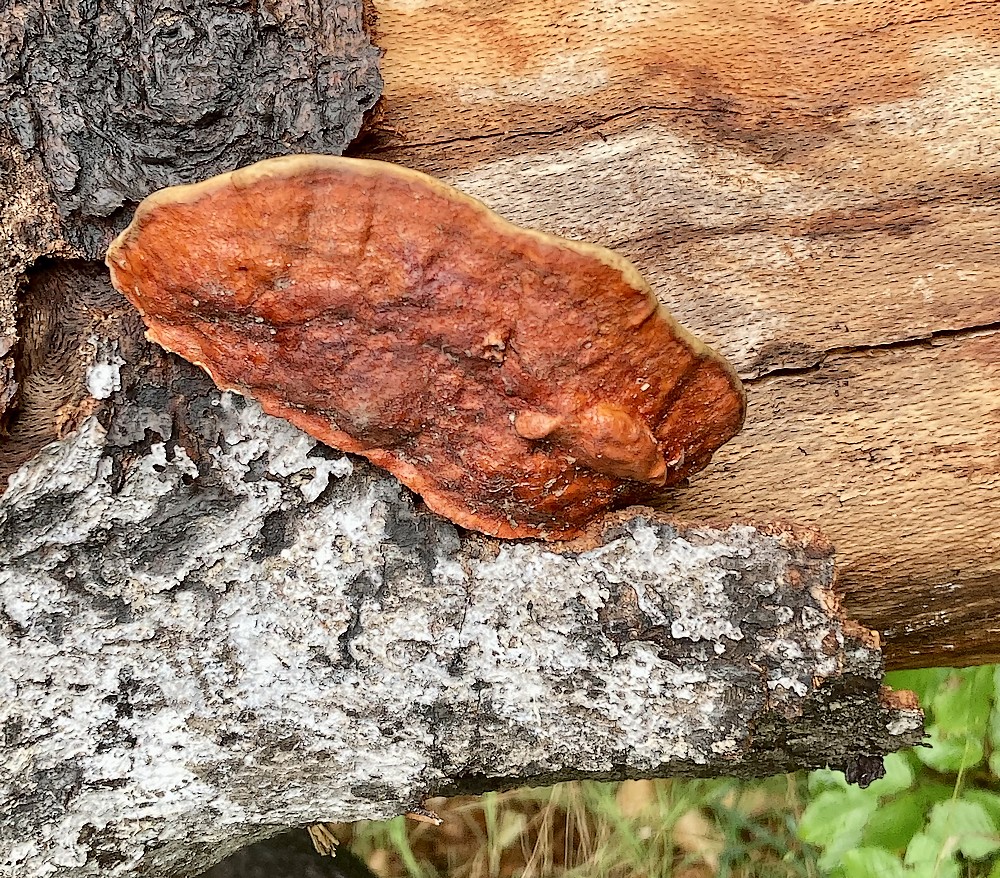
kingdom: Fungi
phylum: Basidiomycota
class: Agaricomycetes
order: Polyporales
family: Fomitopsidaceae
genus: Fomitopsis
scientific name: Fomitopsis pinicola
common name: randbæltet hovporesvamp
